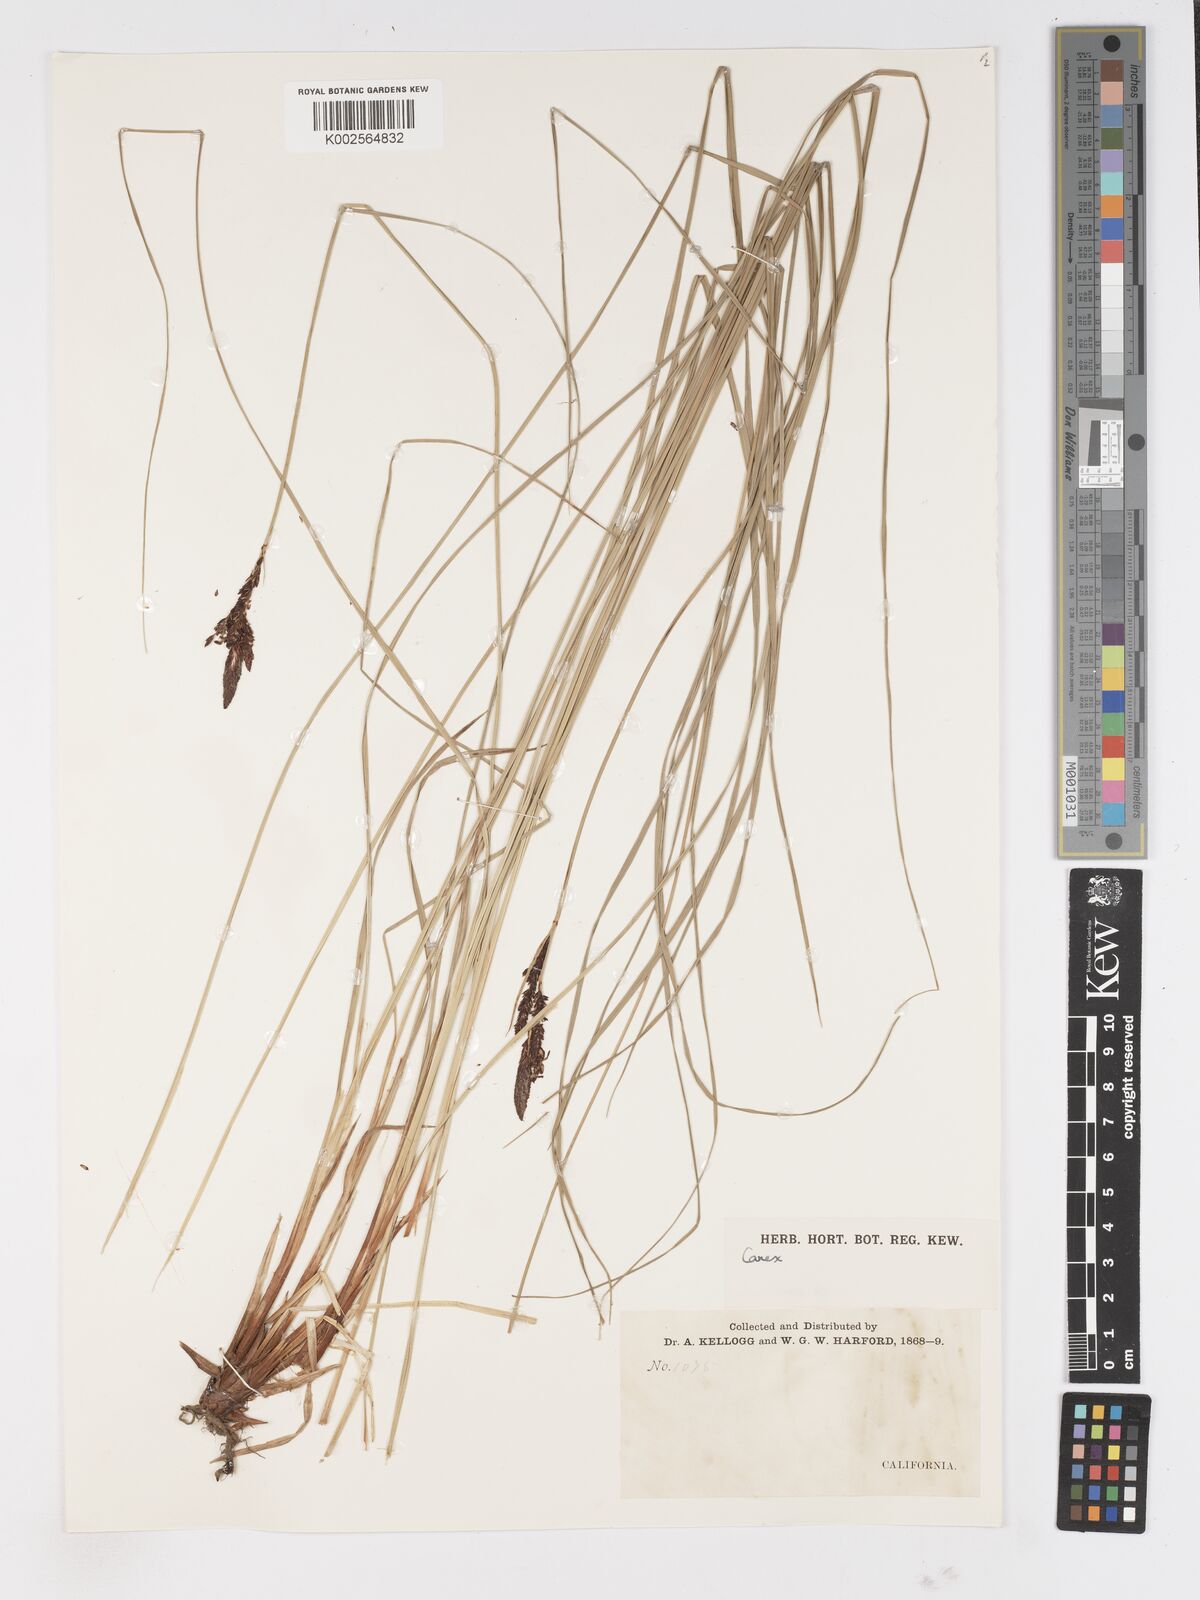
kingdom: Plantae
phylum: Tracheophyta
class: Liliopsida
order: Poales
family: Cyperaceae
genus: Carex
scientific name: Carex
